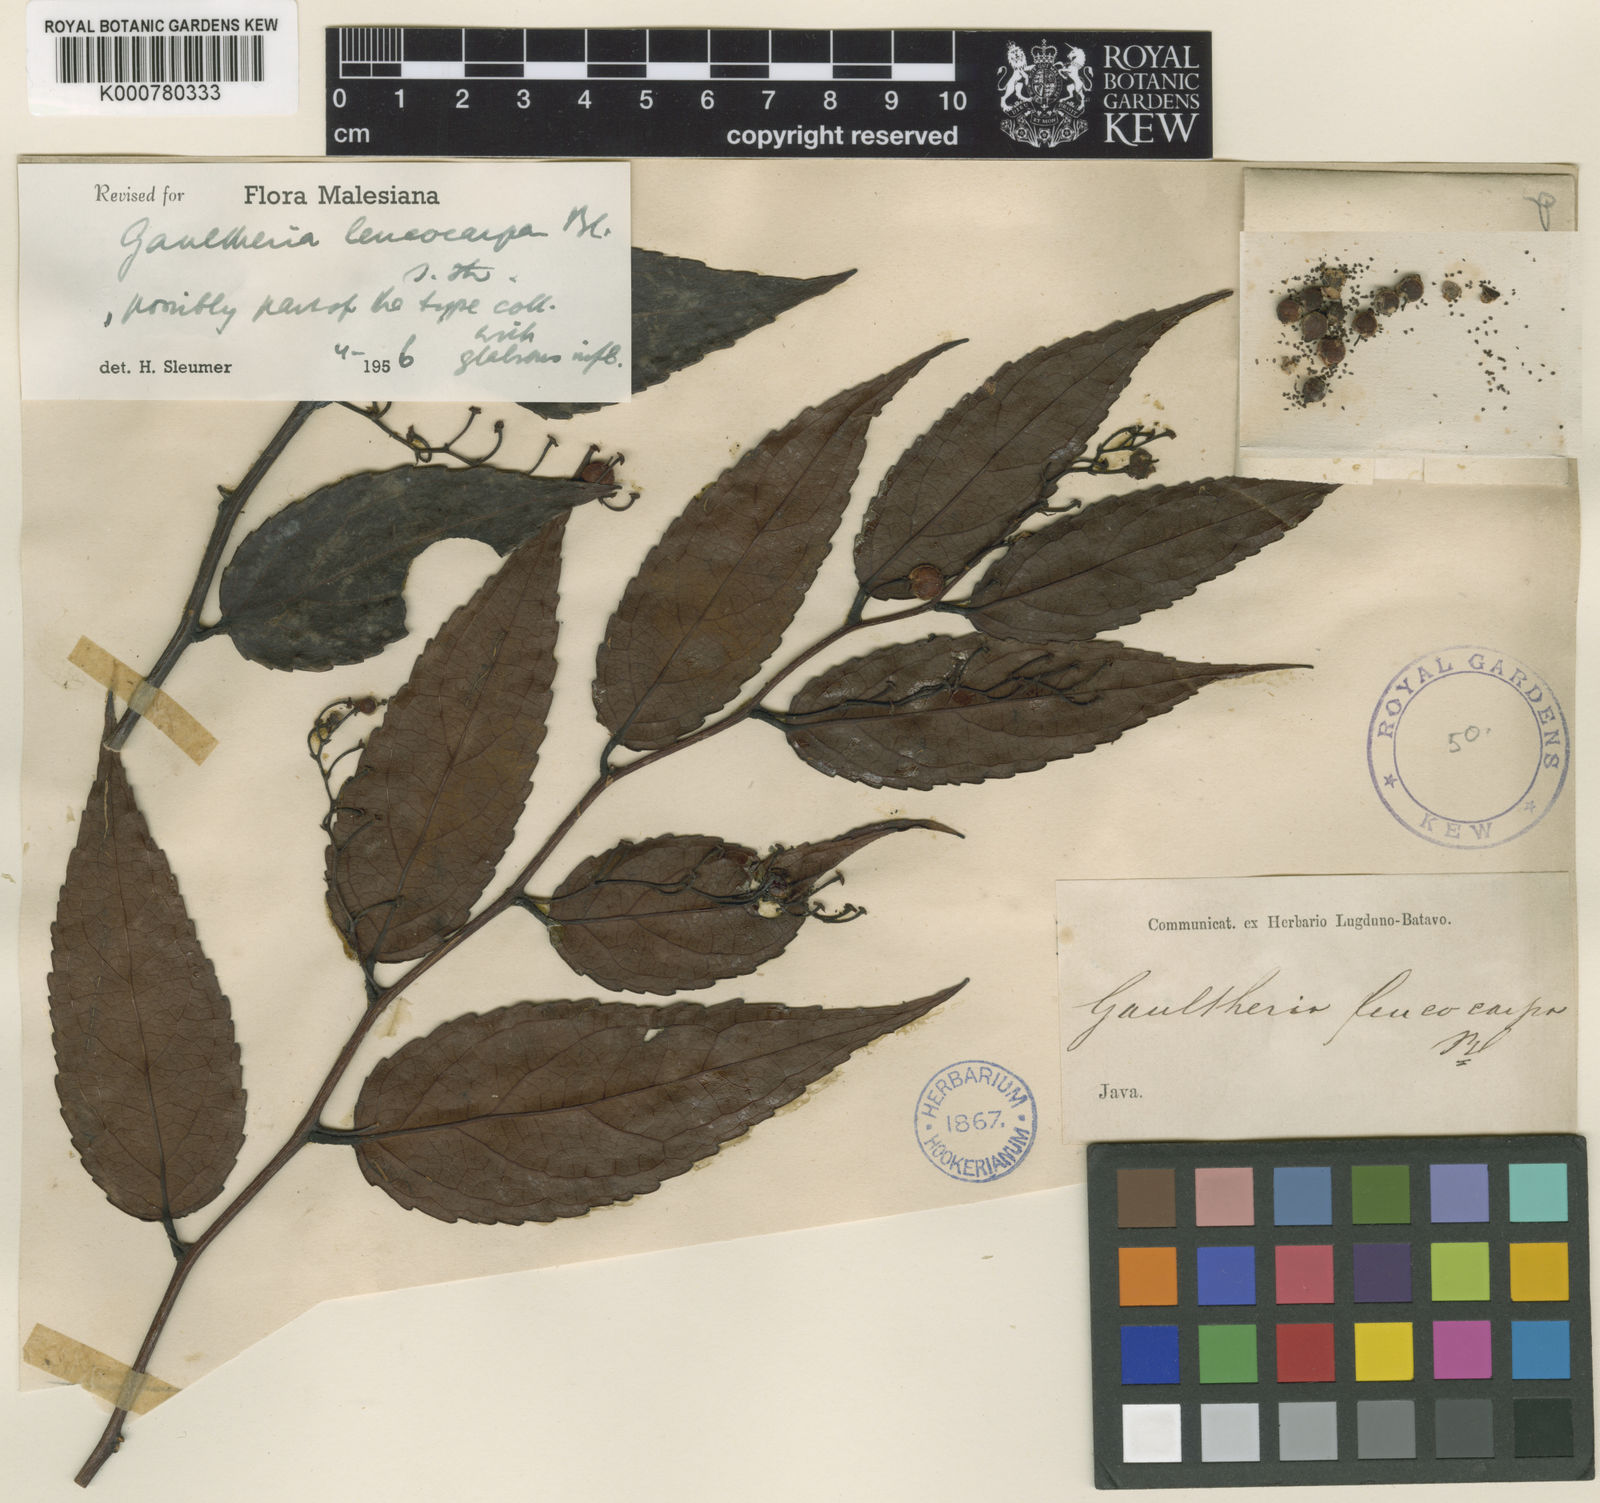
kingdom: Plantae
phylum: Tracheophyta
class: Magnoliopsida
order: Ericales
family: Ericaceae
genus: Gaultheria
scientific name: Gaultheria leucocarpa
